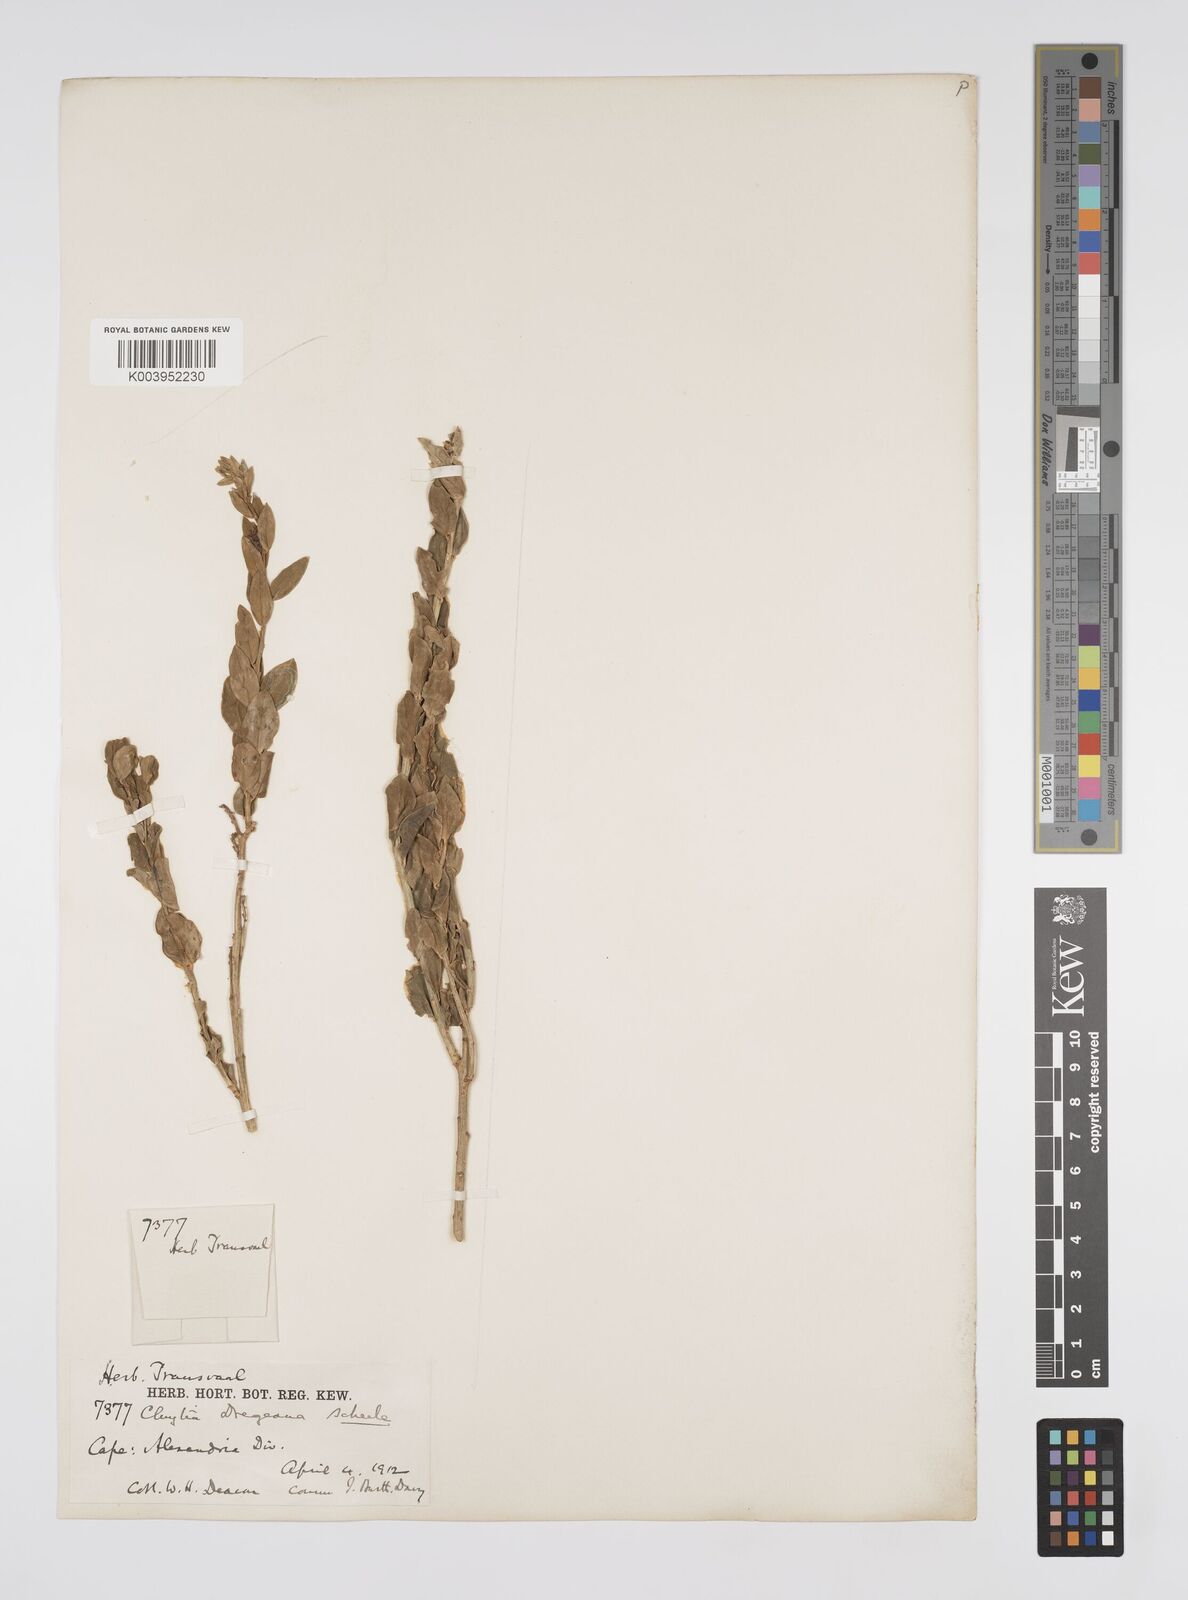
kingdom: Plantae
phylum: Tracheophyta
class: Magnoliopsida
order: Malpighiales
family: Peraceae
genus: Clutia
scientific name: Clutia dregeana
